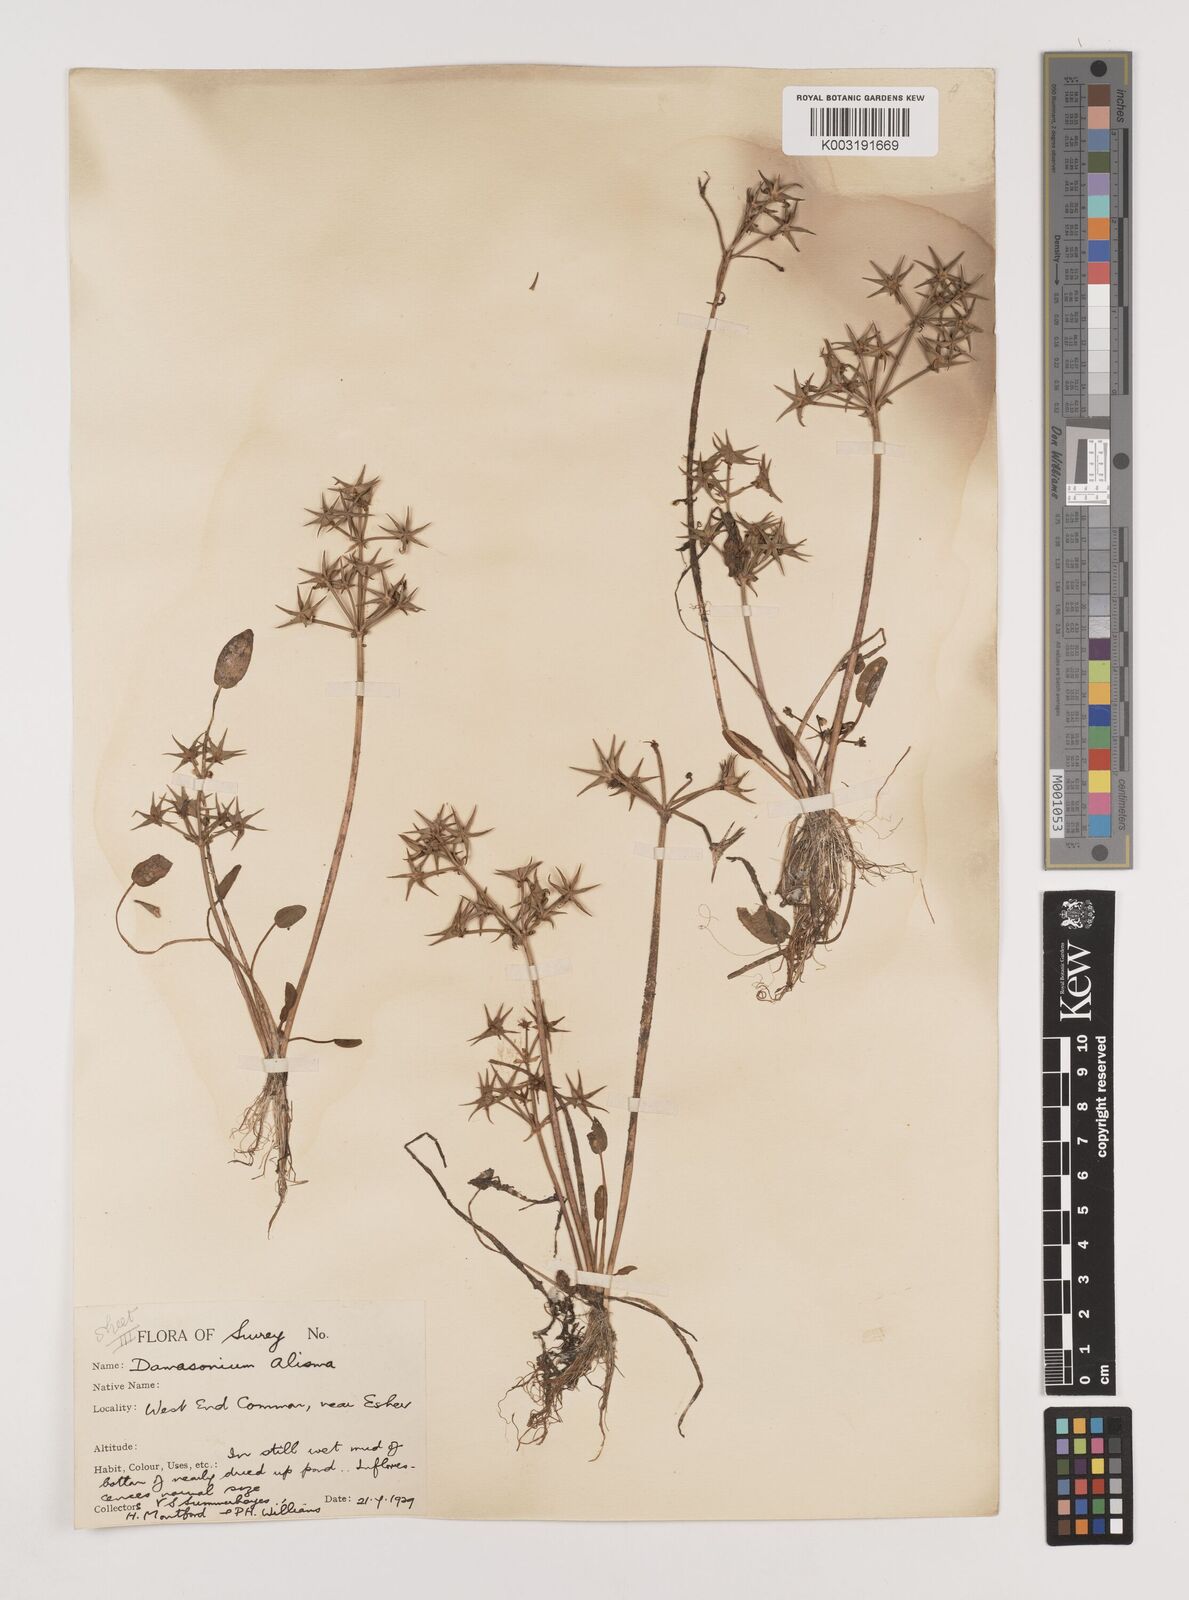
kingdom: Plantae
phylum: Tracheophyta
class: Liliopsida
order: Alismatales
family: Alismataceae
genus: Damasonium
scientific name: Damasonium alisma
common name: Starfruit
